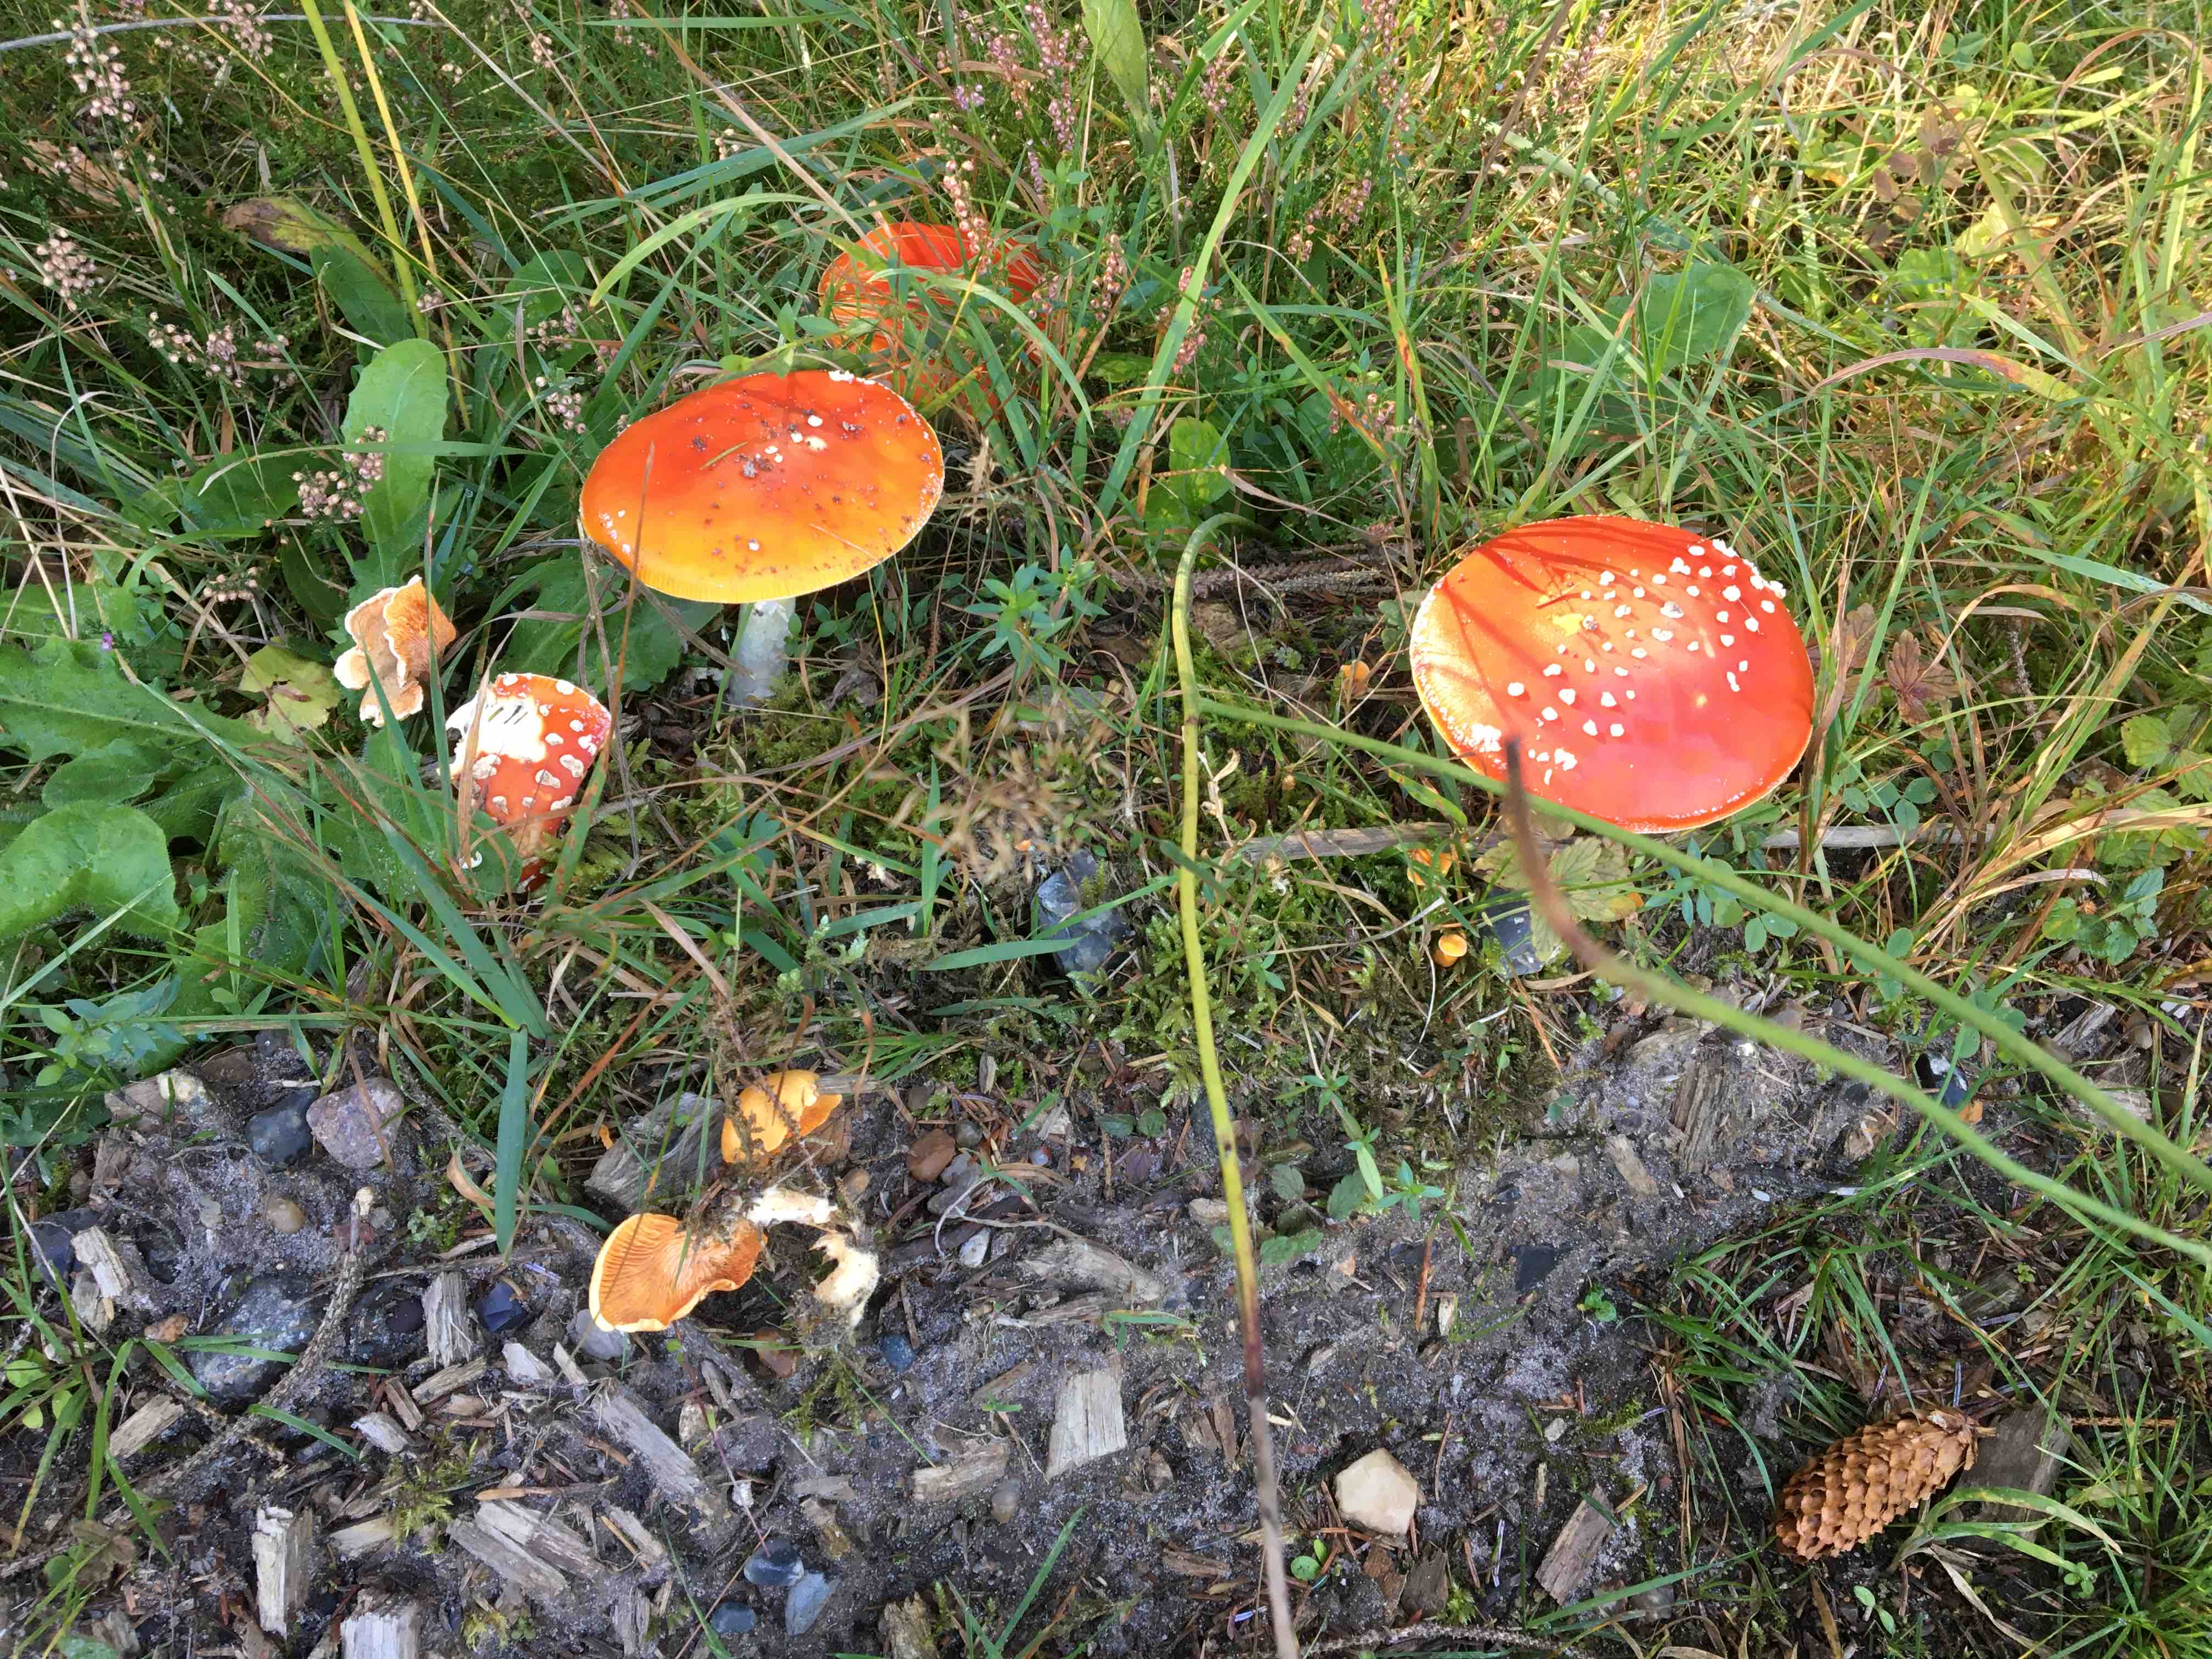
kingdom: Fungi
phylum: Basidiomycota
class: Agaricomycetes
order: Agaricales
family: Amanitaceae
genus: Amanita
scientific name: Amanita muscaria
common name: rød fluesvamp
